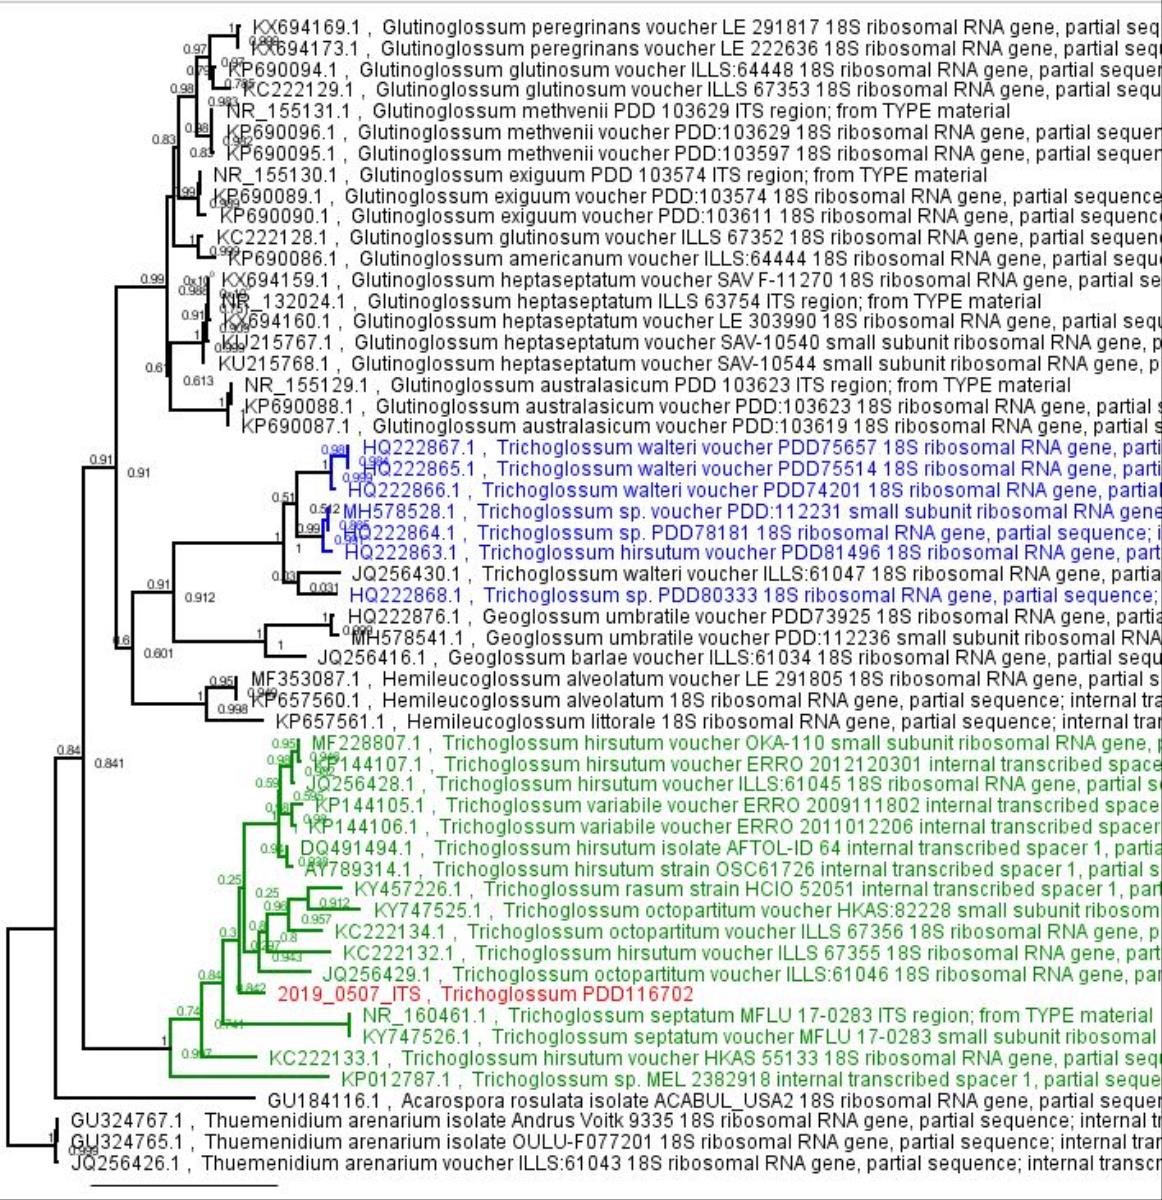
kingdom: Fungi
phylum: Ascomycota
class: Geoglossomycetes
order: Geoglossales
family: Geoglossaceae
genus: Trichoglossum
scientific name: Trichoglossum
